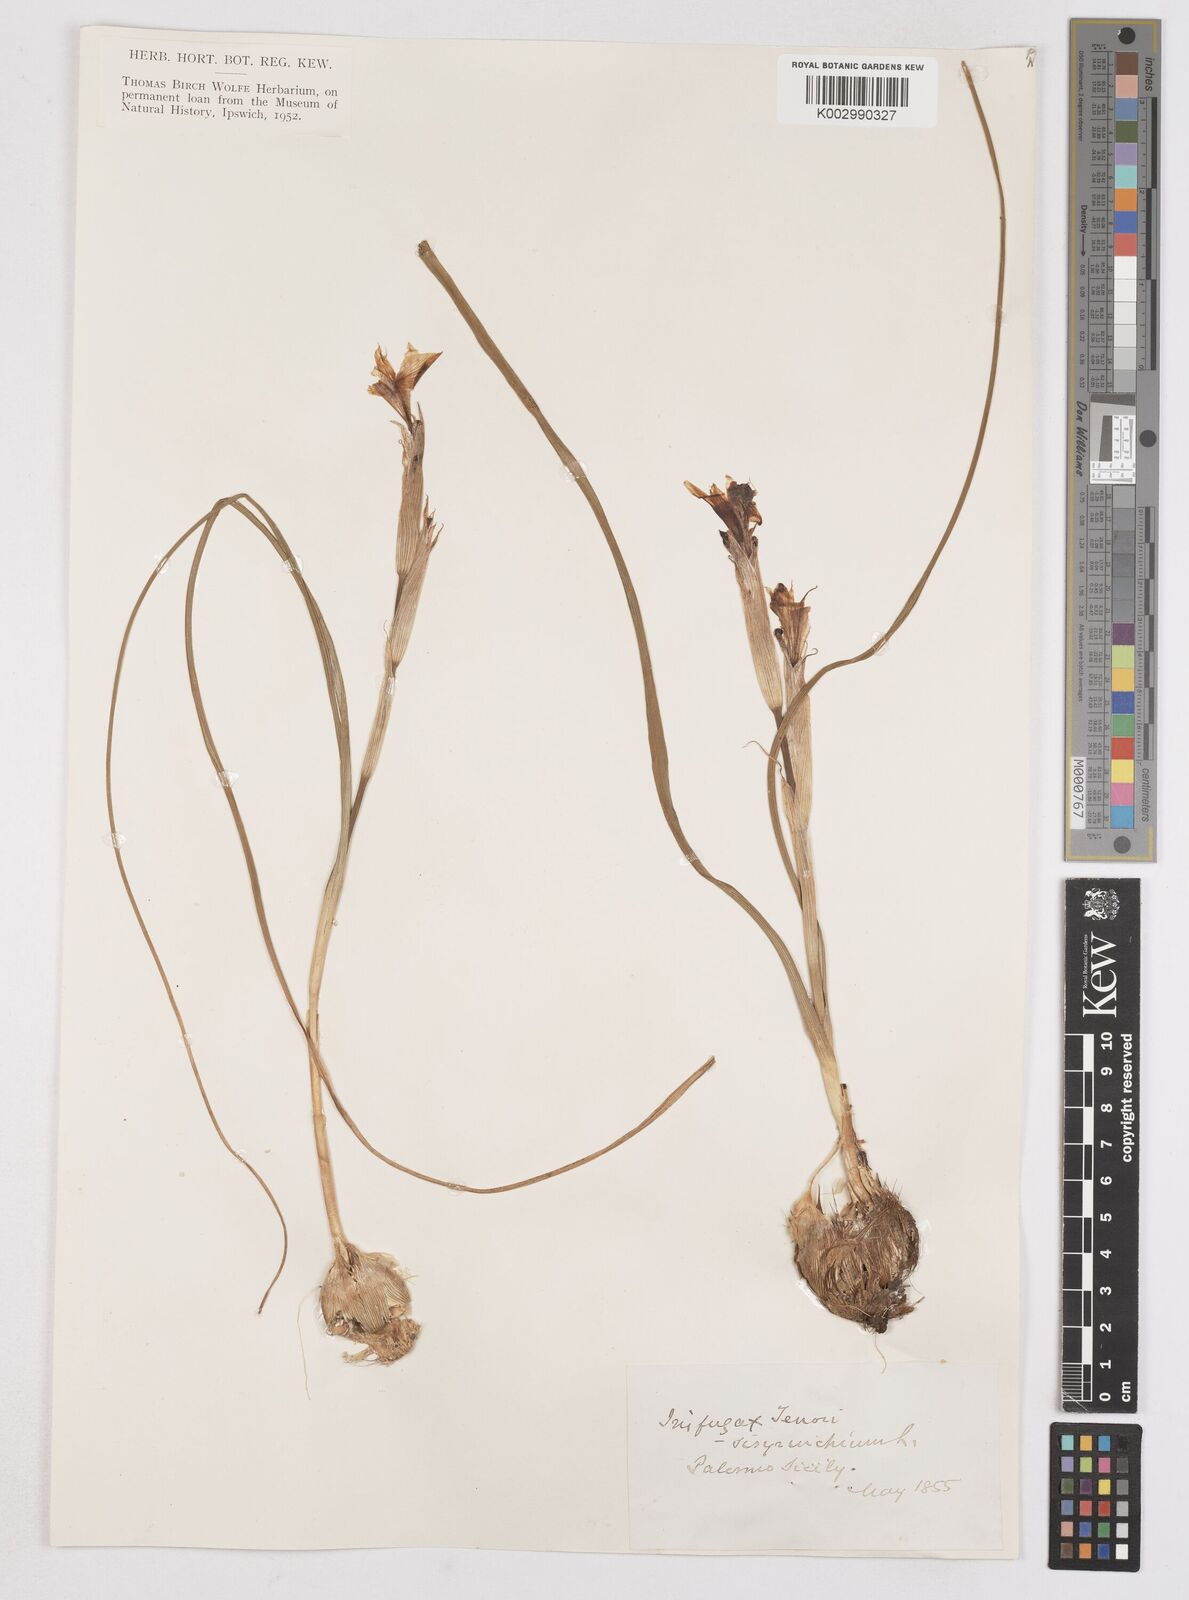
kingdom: Plantae
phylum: Tracheophyta
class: Liliopsida
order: Asparagales
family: Iridaceae
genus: Moraea
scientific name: Moraea sisyrinchium
